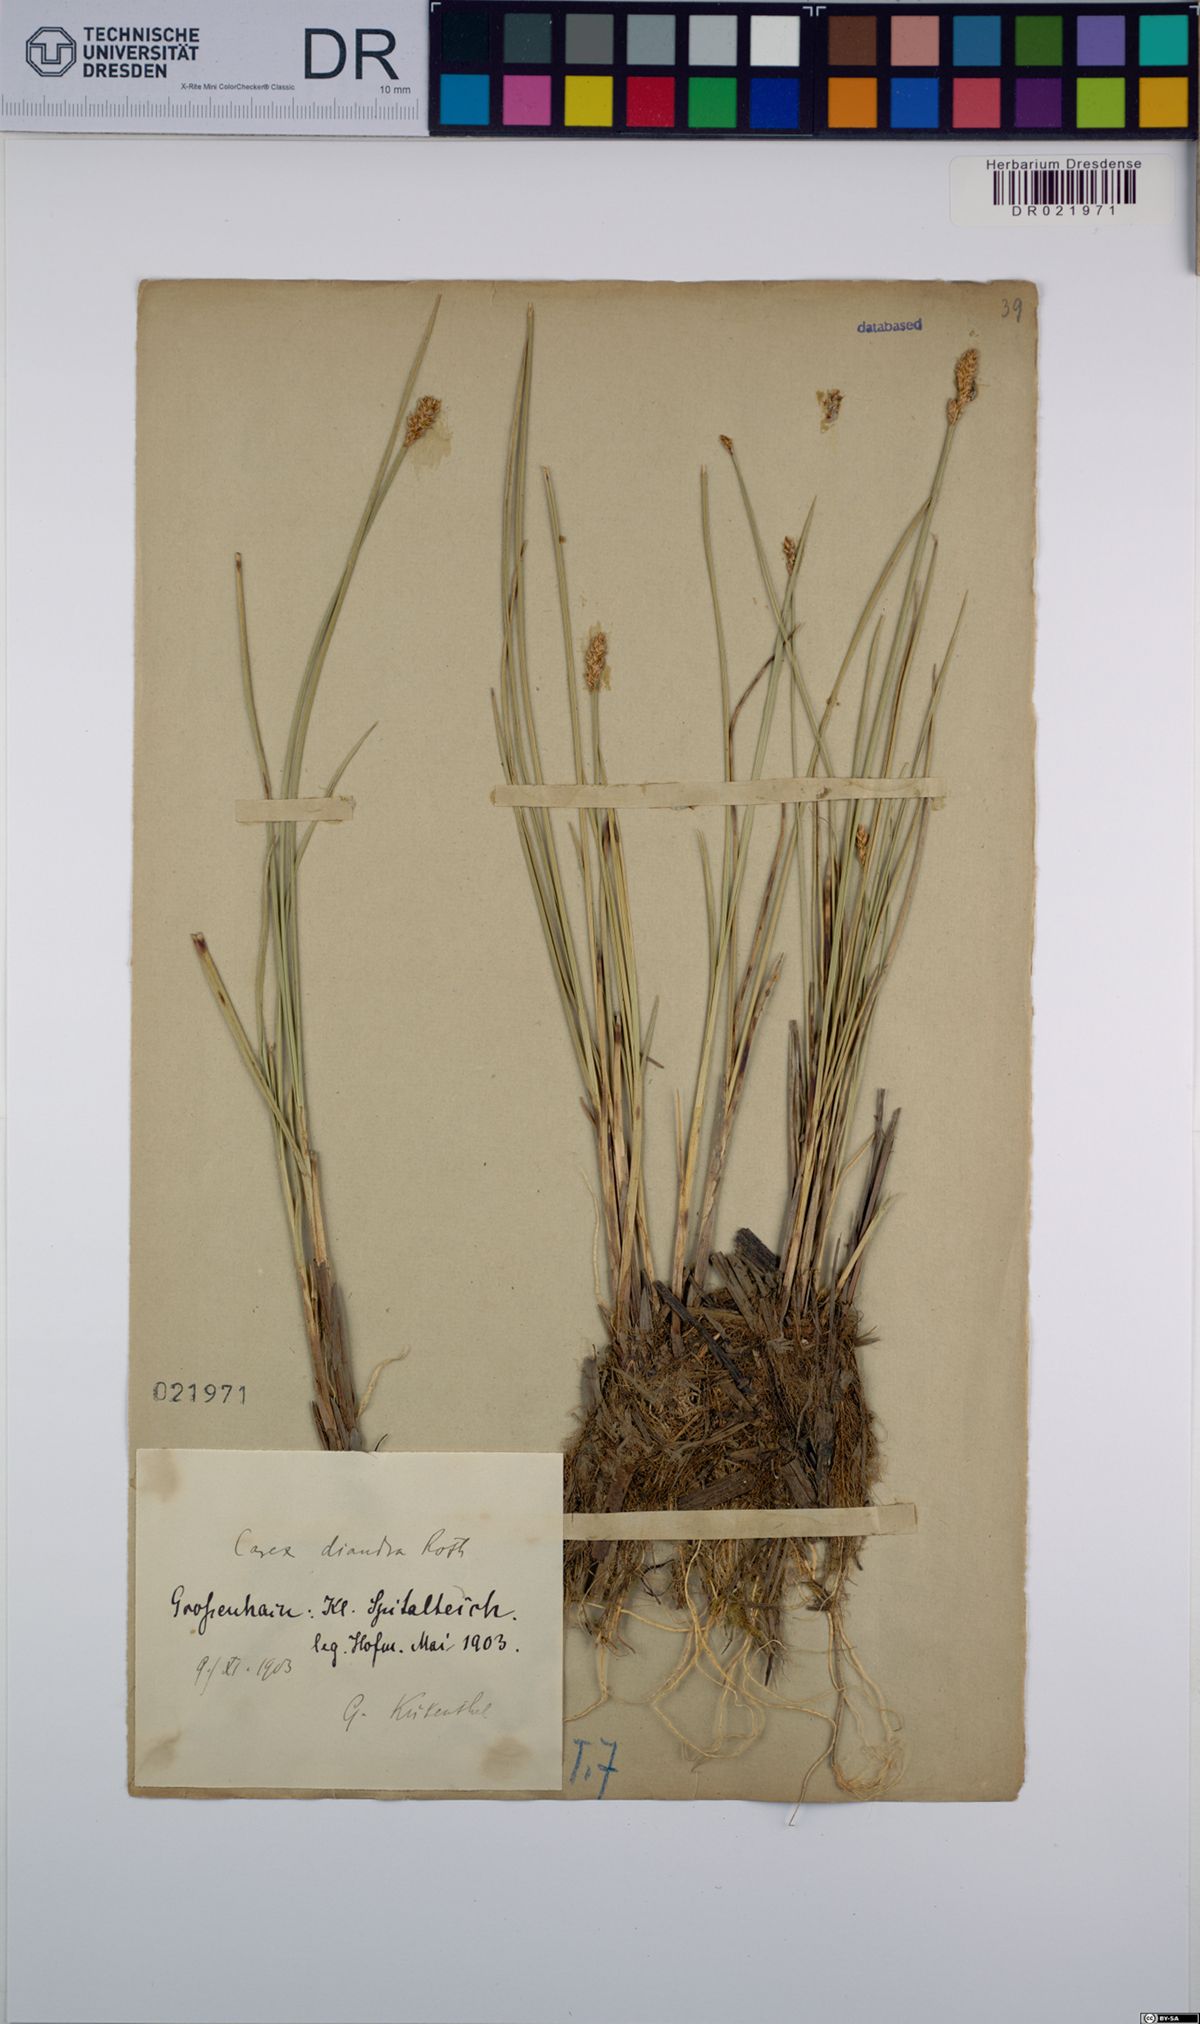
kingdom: Plantae
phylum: Tracheophyta
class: Liliopsida
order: Poales
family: Cyperaceae
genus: Carex
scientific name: Carex diandra
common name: Lesser tussock-sedge
